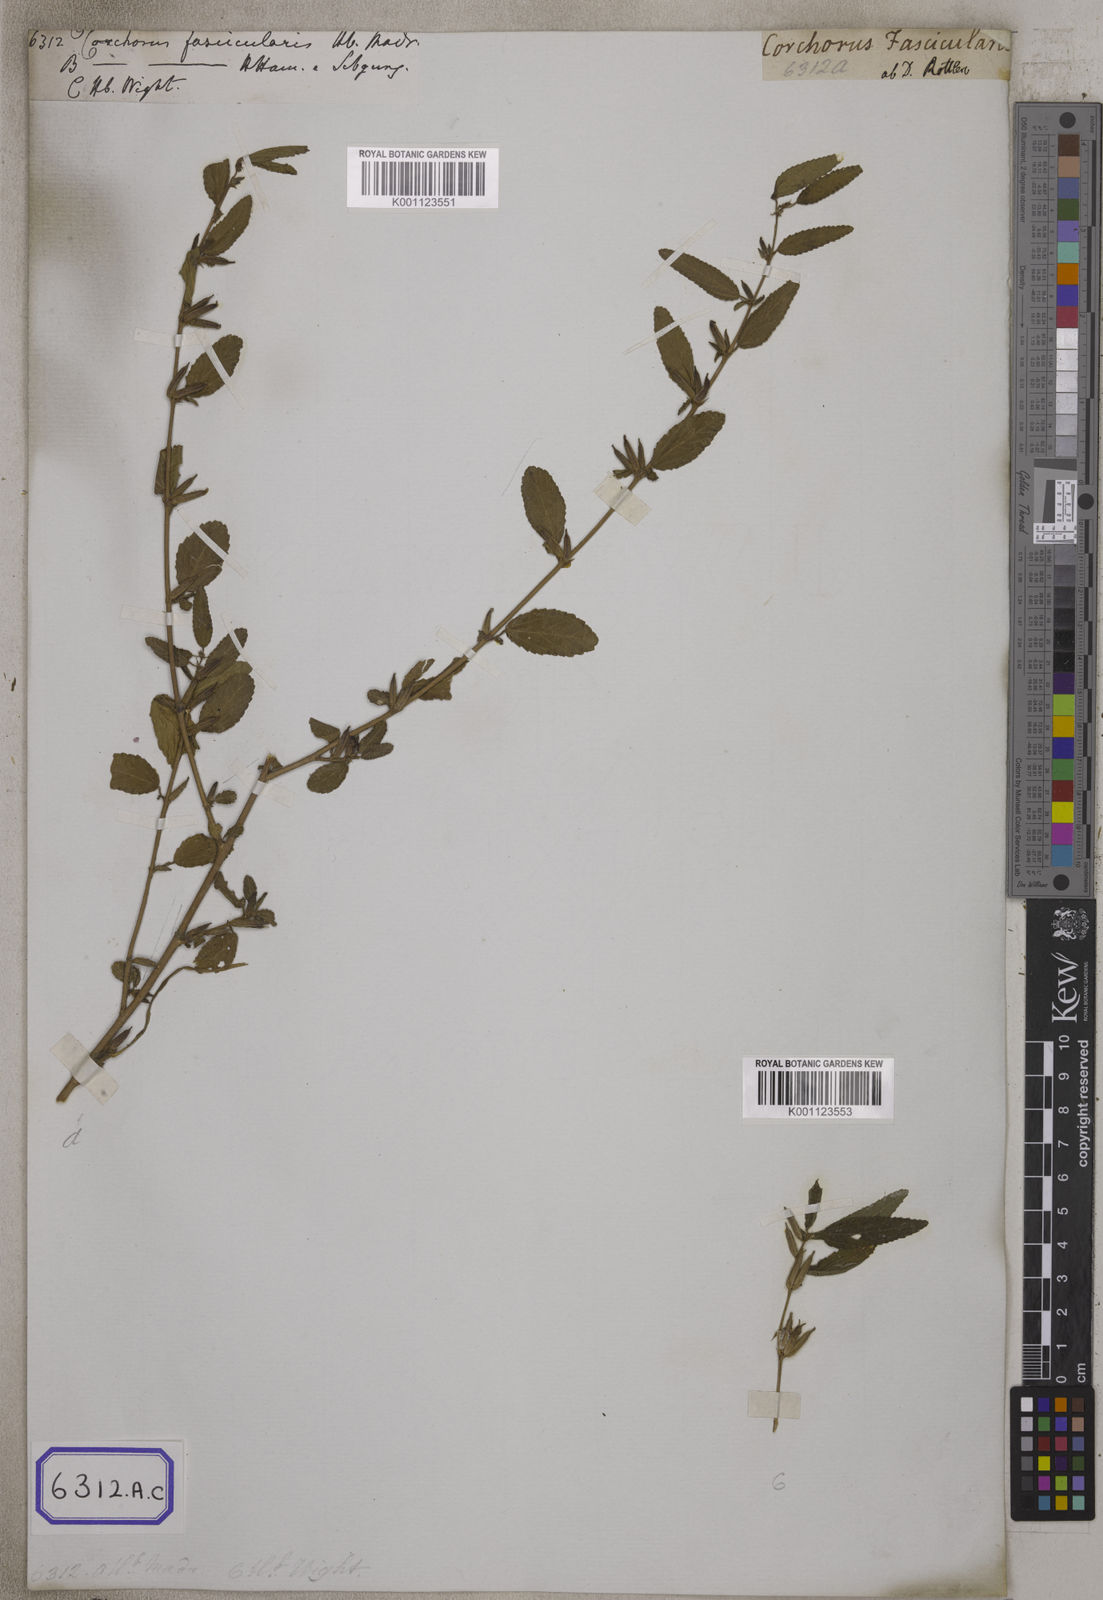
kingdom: Plantae
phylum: Tracheophyta
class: Magnoliopsida
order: Malvales
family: Malvaceae
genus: Corchorus
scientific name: Corchorus fascicularis
